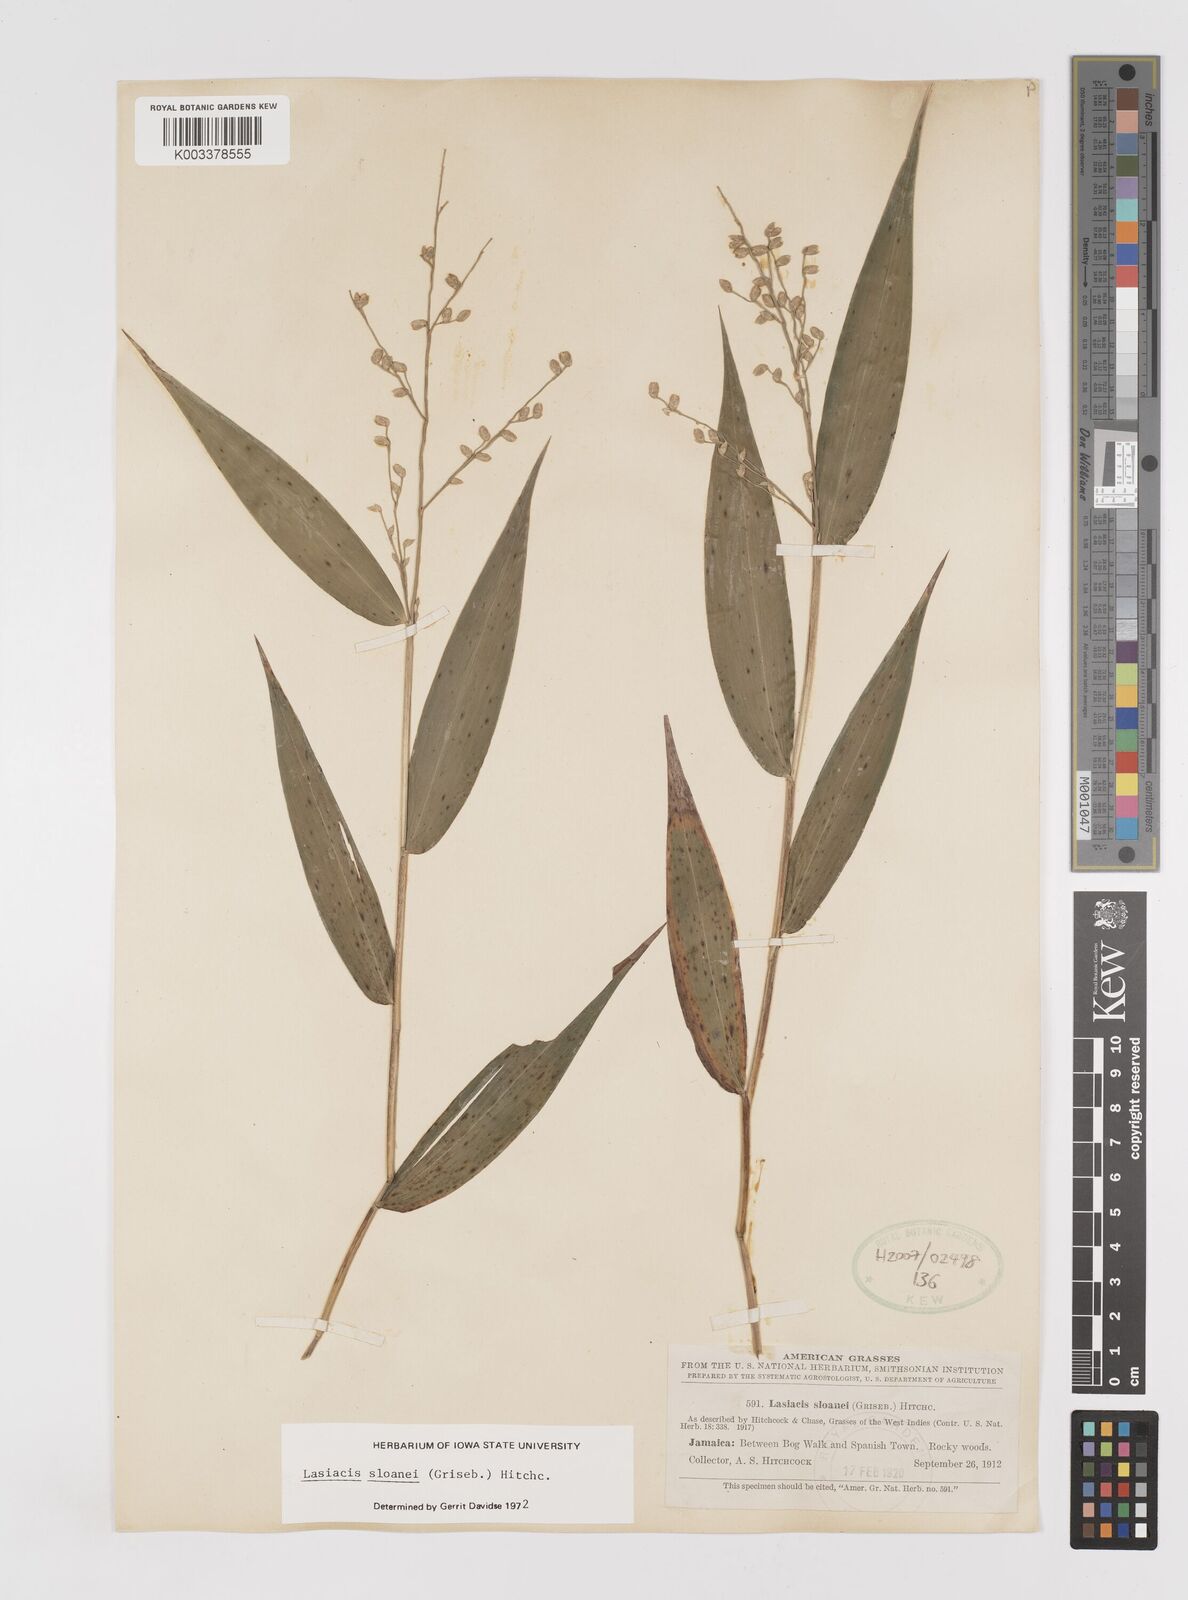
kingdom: Plantae
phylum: Tracheophyta
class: Liliopsida
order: Poales
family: Poaceae
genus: Lasiacis
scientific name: Lasiacis sloanei
